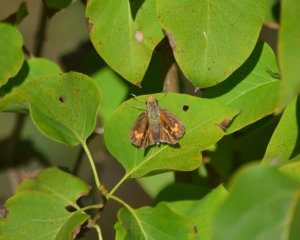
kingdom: Animalia
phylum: Arthropoda
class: Insecta
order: Lepidoptera
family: Hesperiidae
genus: Hesperia
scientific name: Hesperia leonardus
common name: Leonard's Skipper
